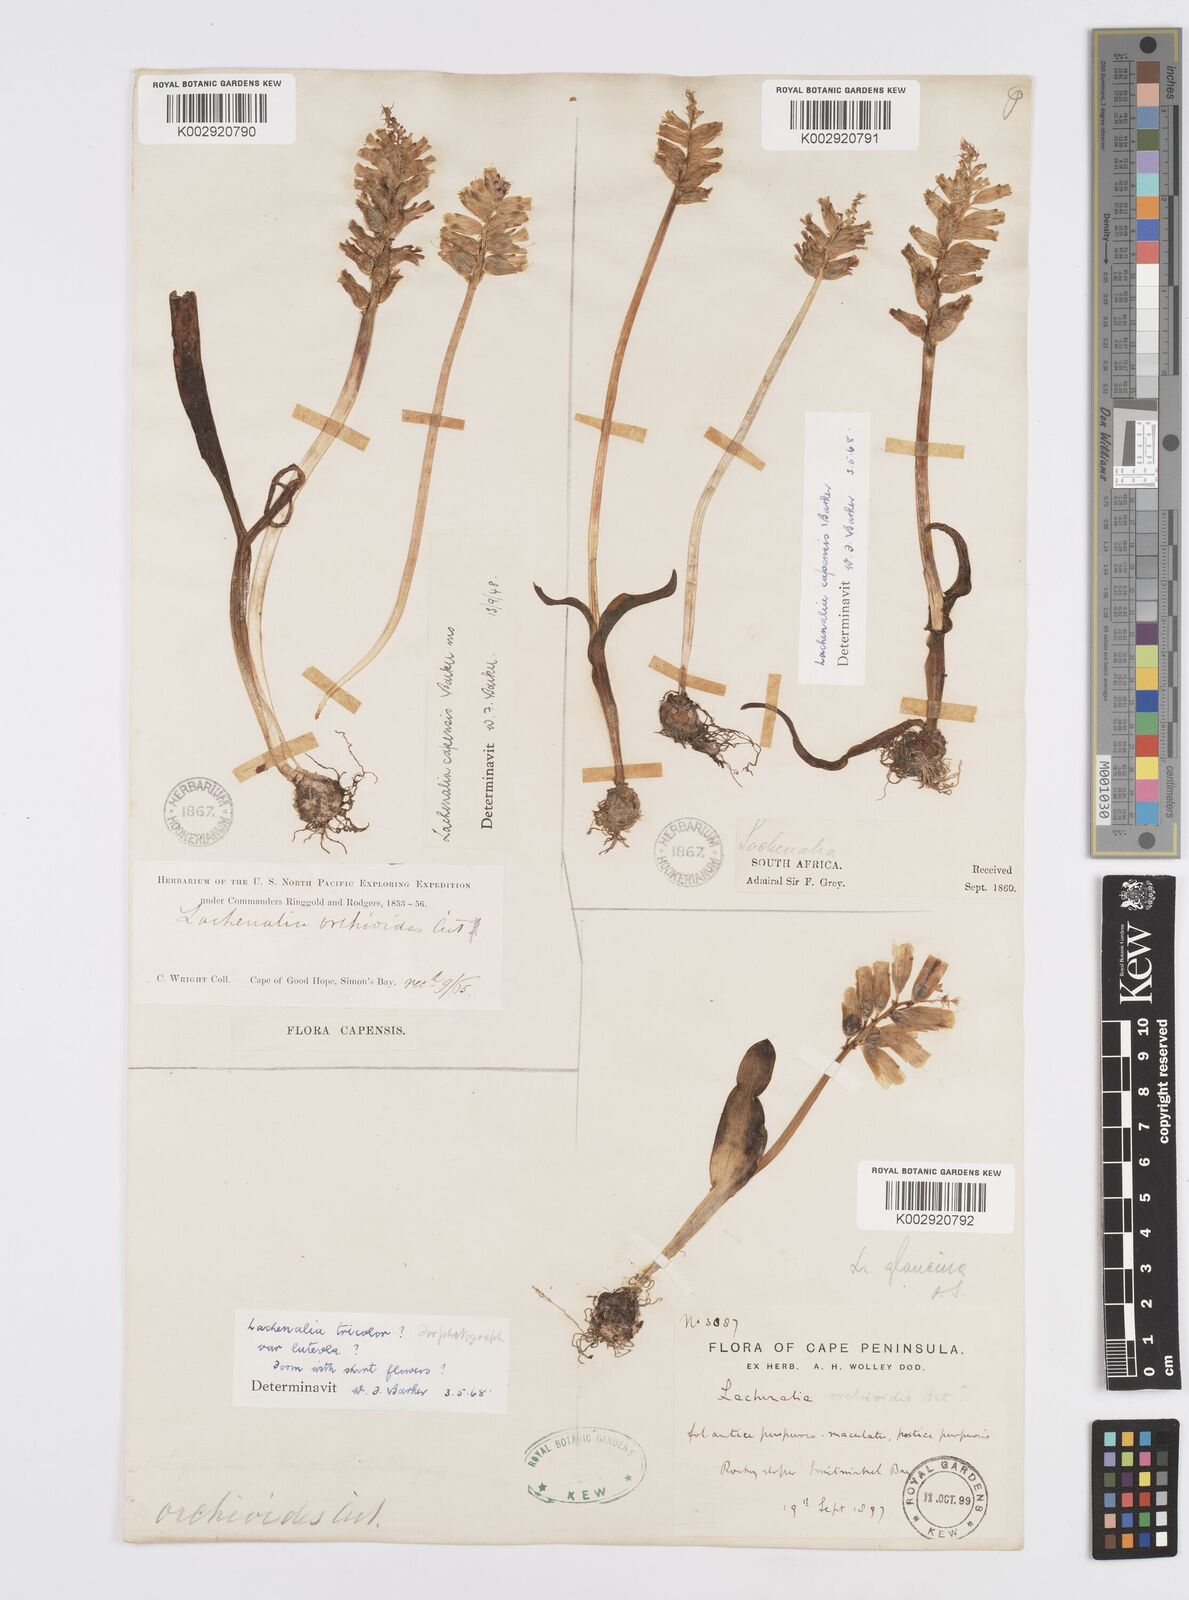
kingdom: Plantae
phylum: Tracheophyta
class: Liliopsida
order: Asparagales
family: Asparagaceae
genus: Lachenalia
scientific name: Lachenalia capensis
